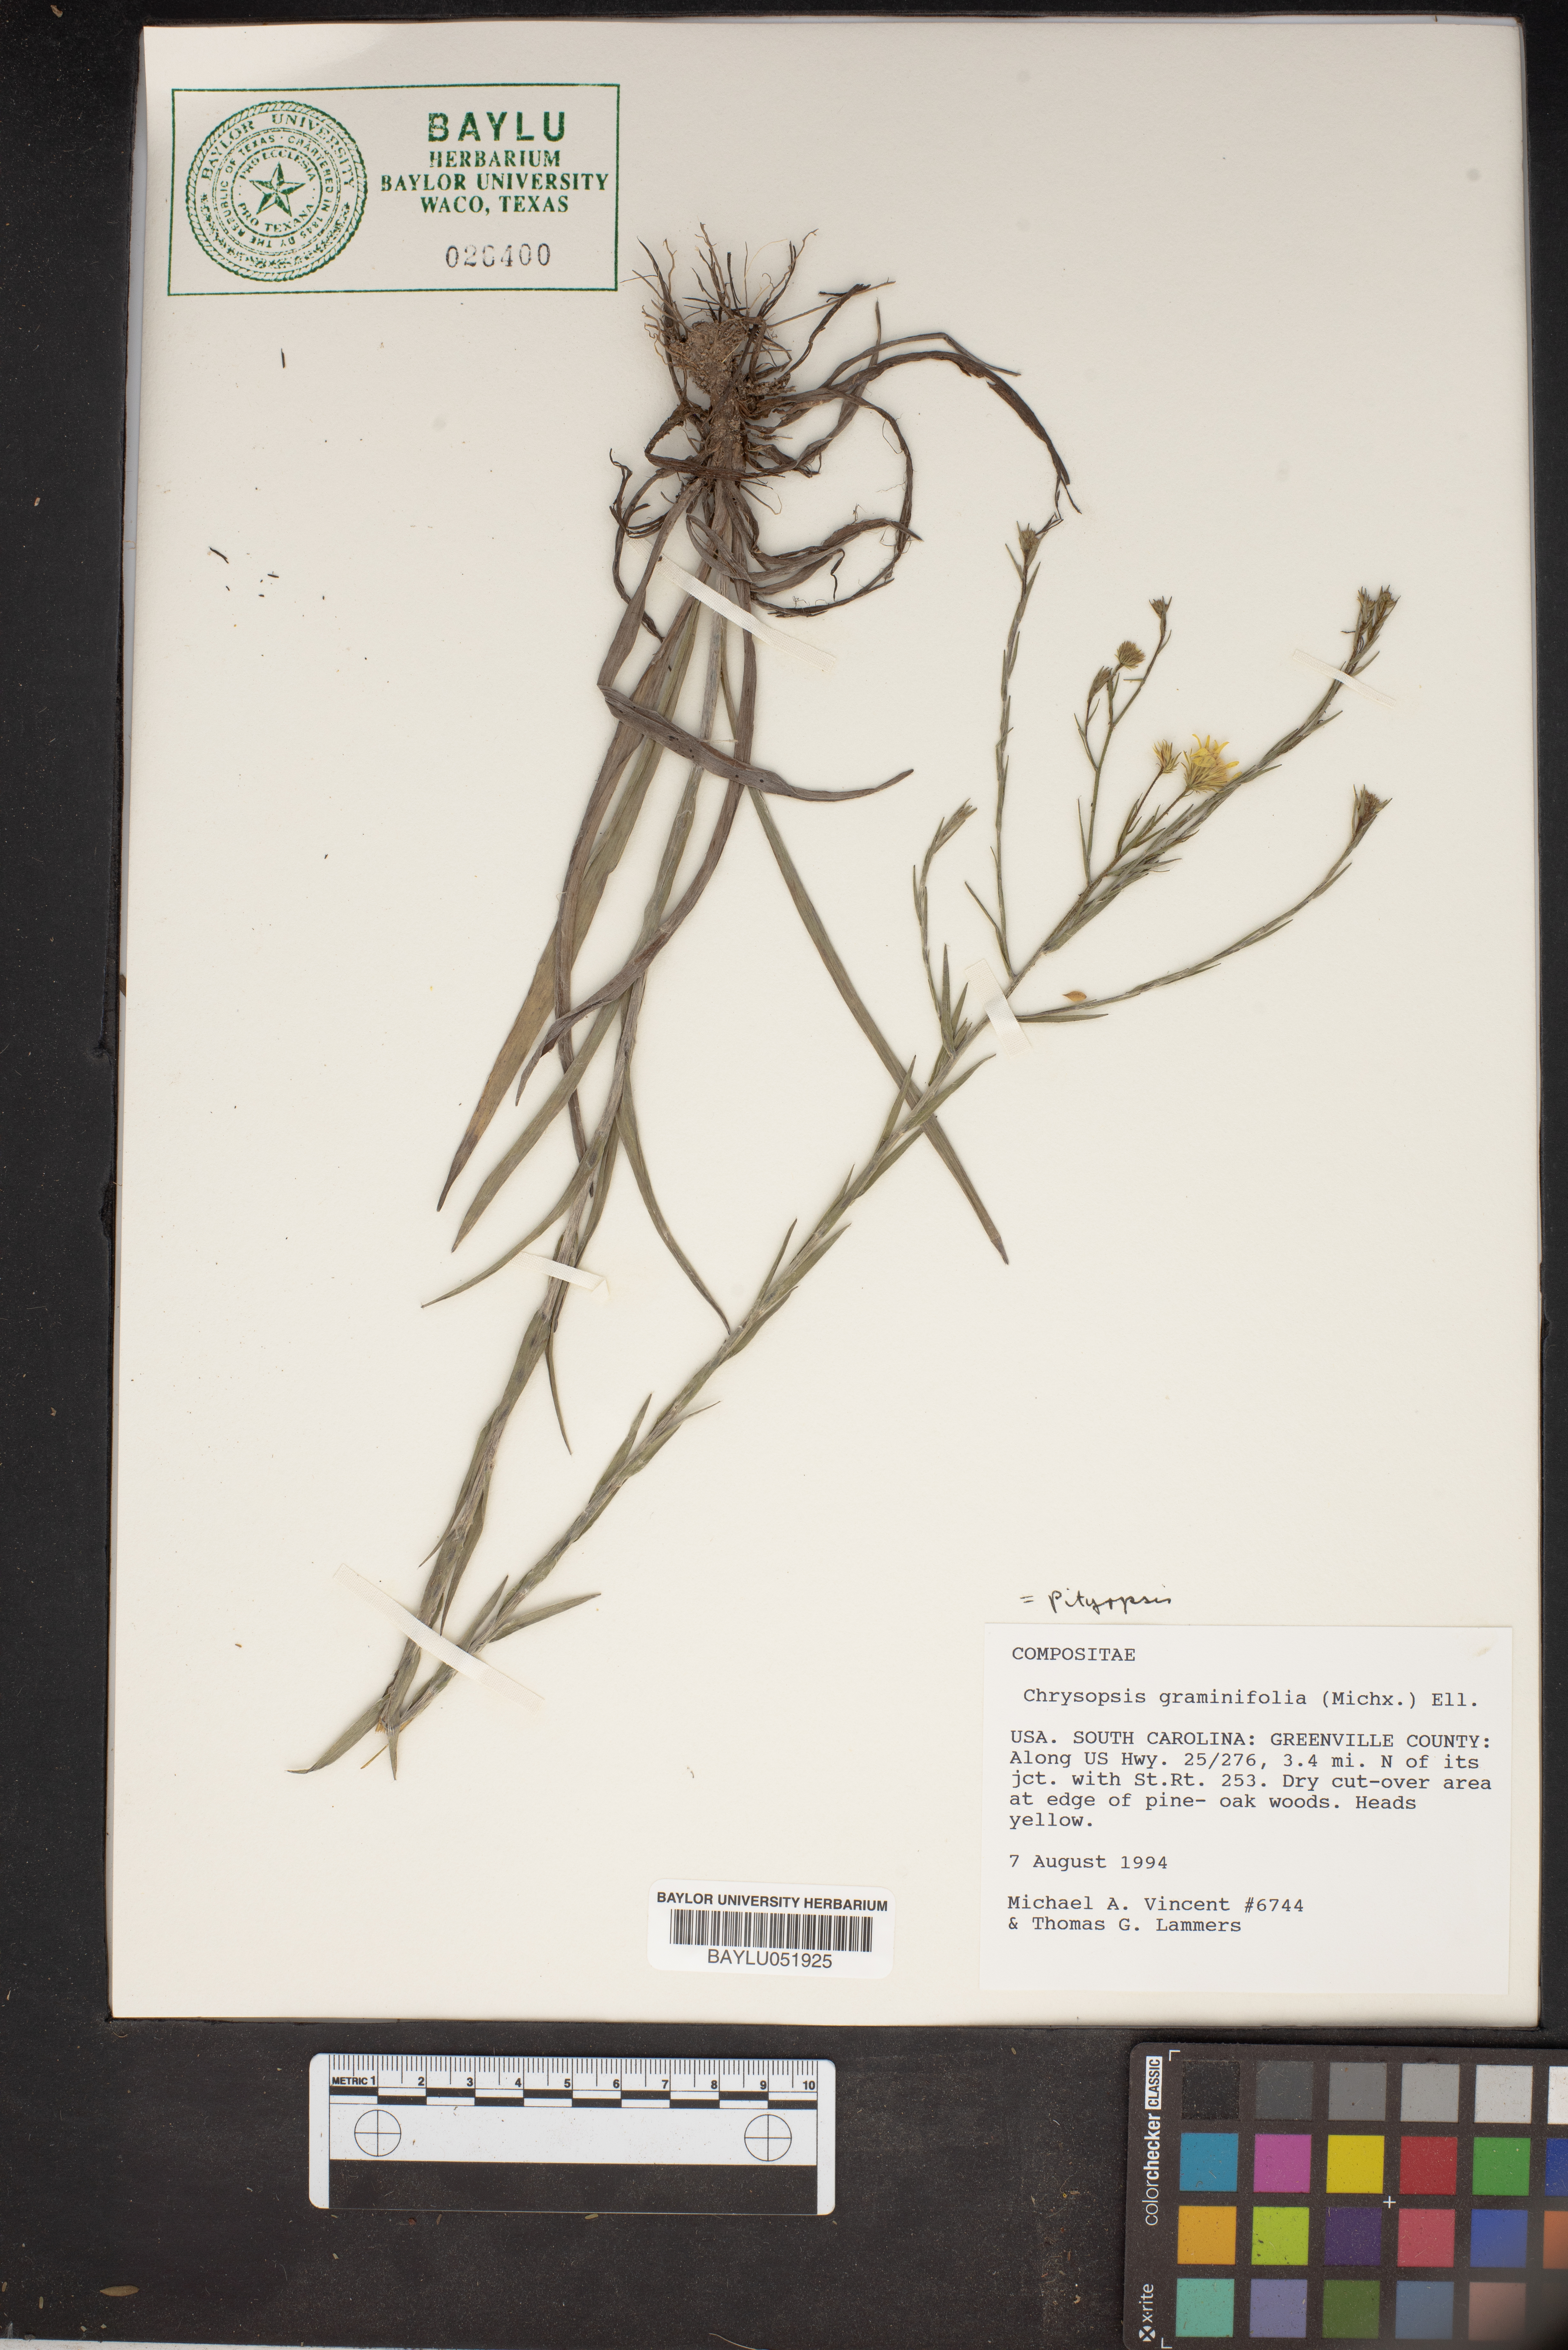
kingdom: Plantae
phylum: Tracheophyta
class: Magnoliopsida
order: Asterales
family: Asteraceae
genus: Pityopsis
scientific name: Pityopsis graminifolia
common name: Grass-leaf golden-aster
